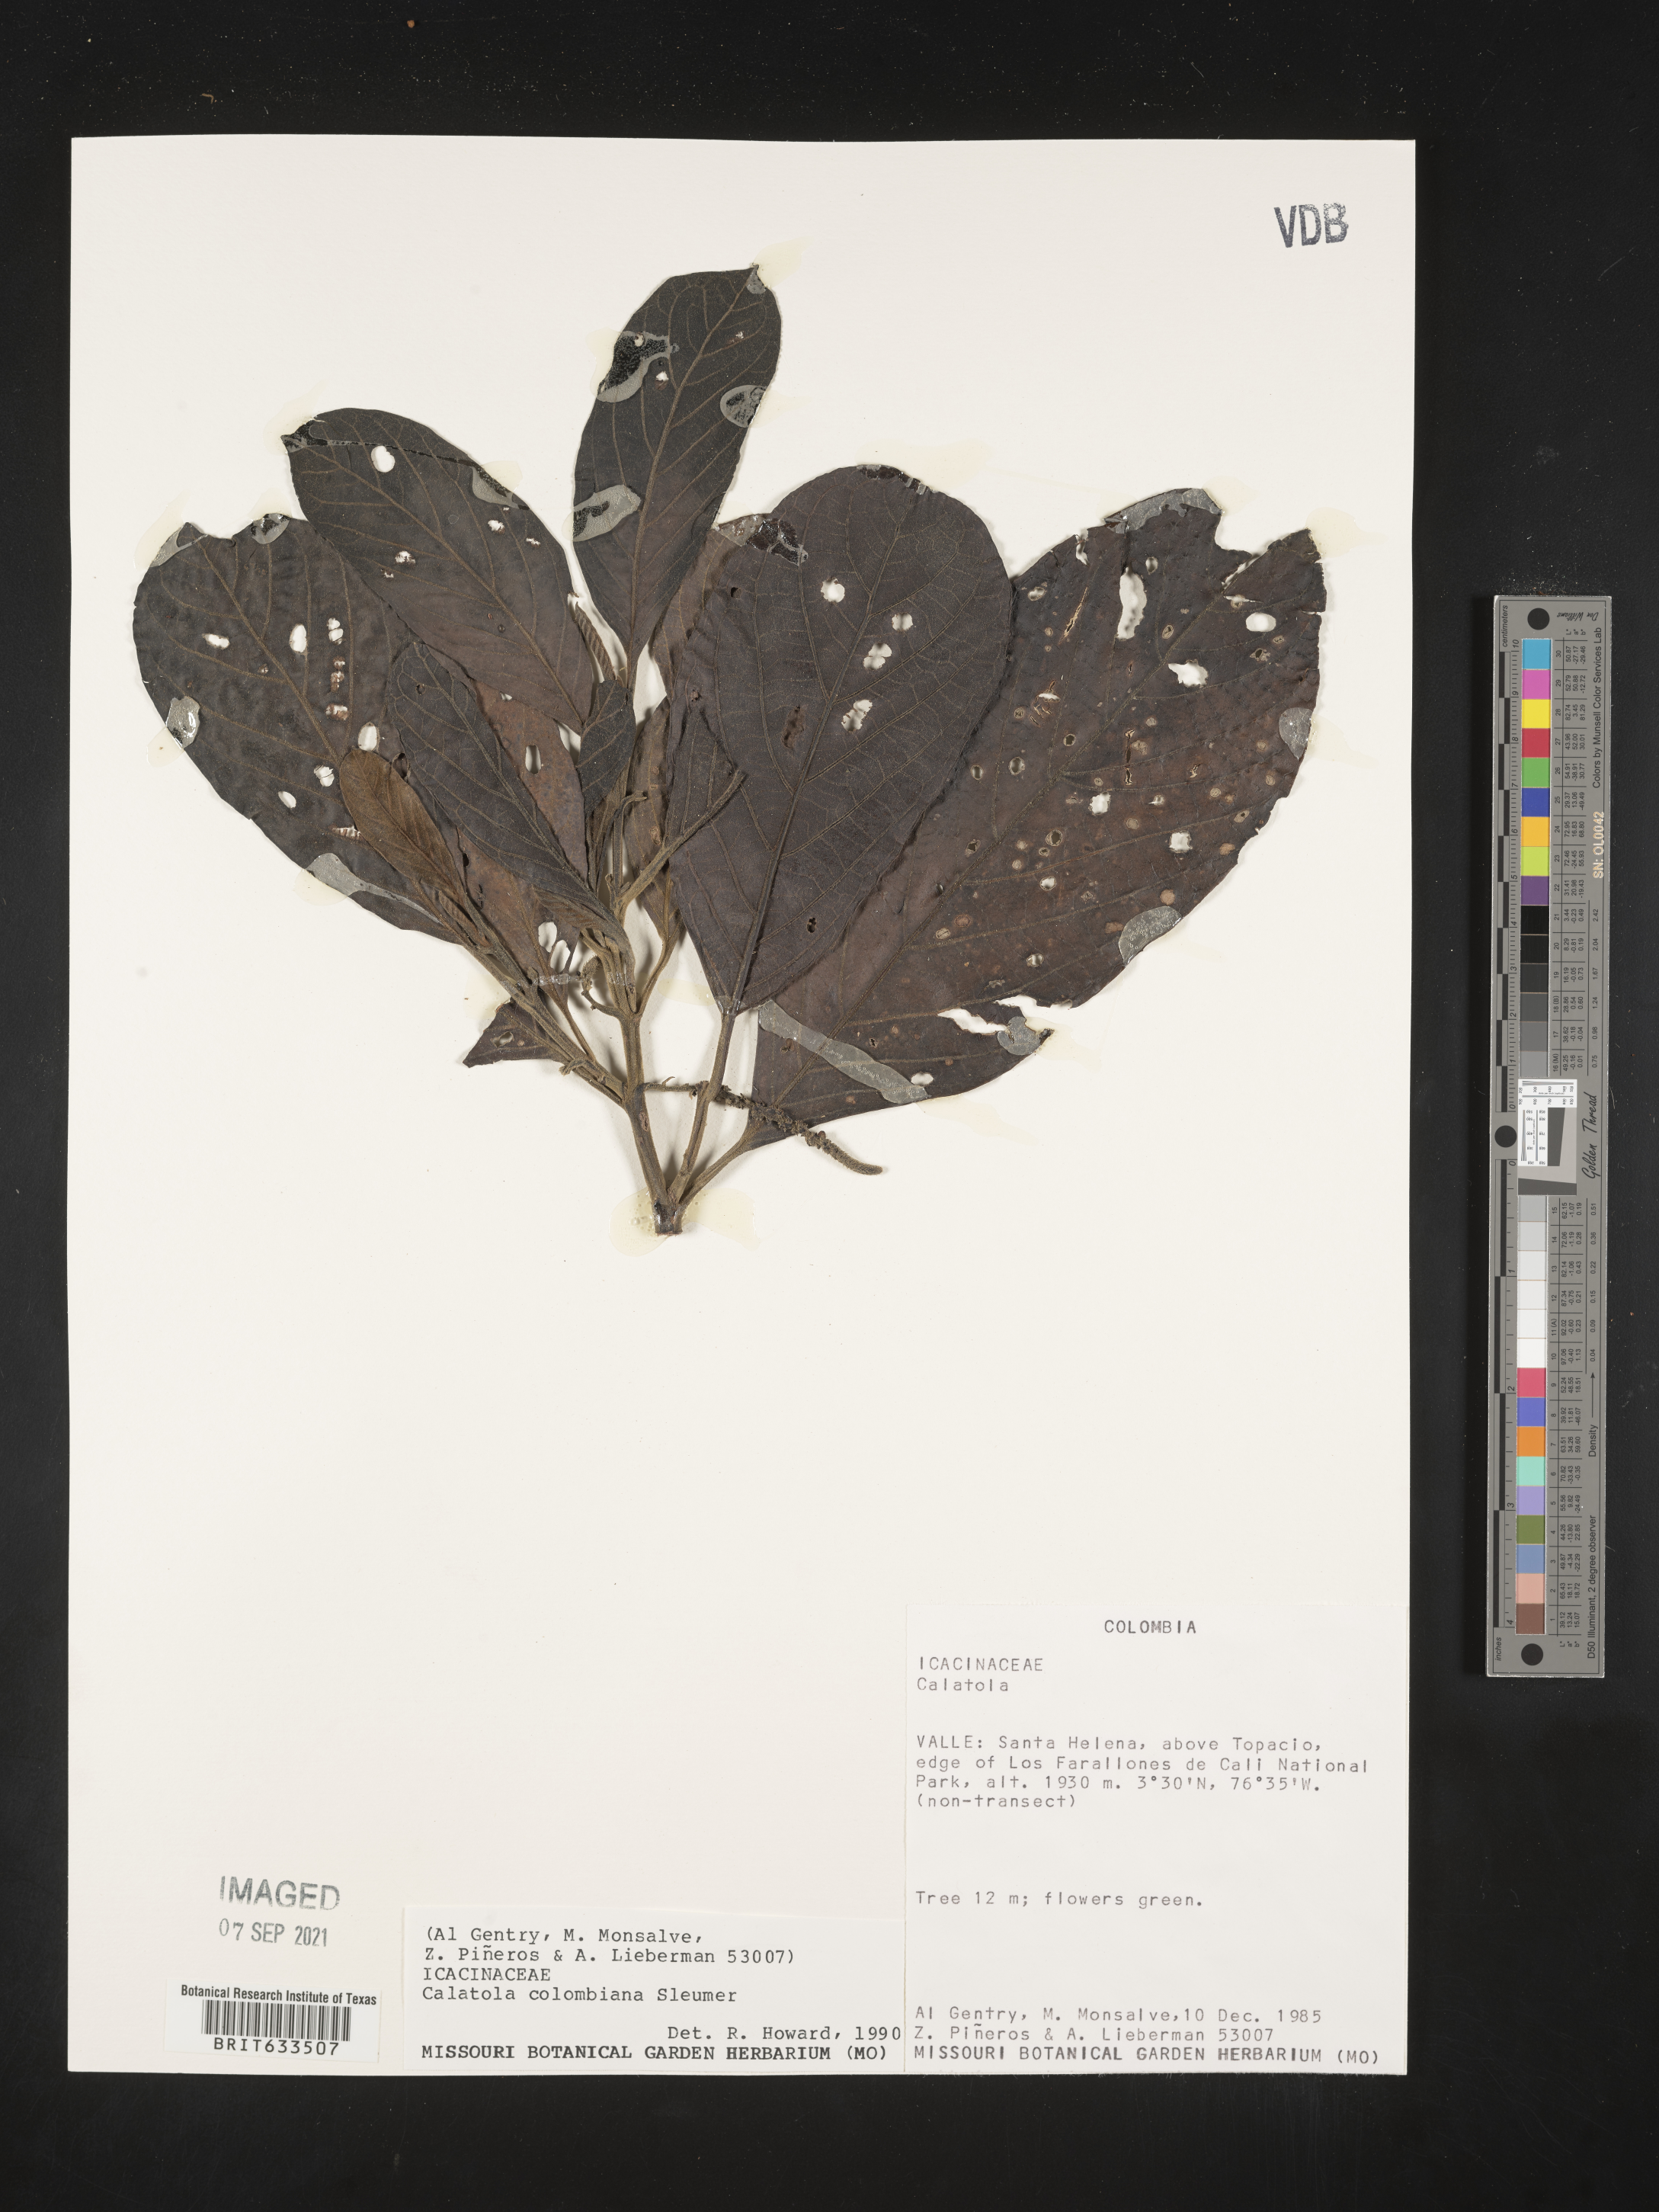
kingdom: Plantae
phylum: Tracheophyta
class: Magnoliopsida
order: Icacinales
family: Icacinaceae
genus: Calatola
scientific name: Calatola
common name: Calatola
